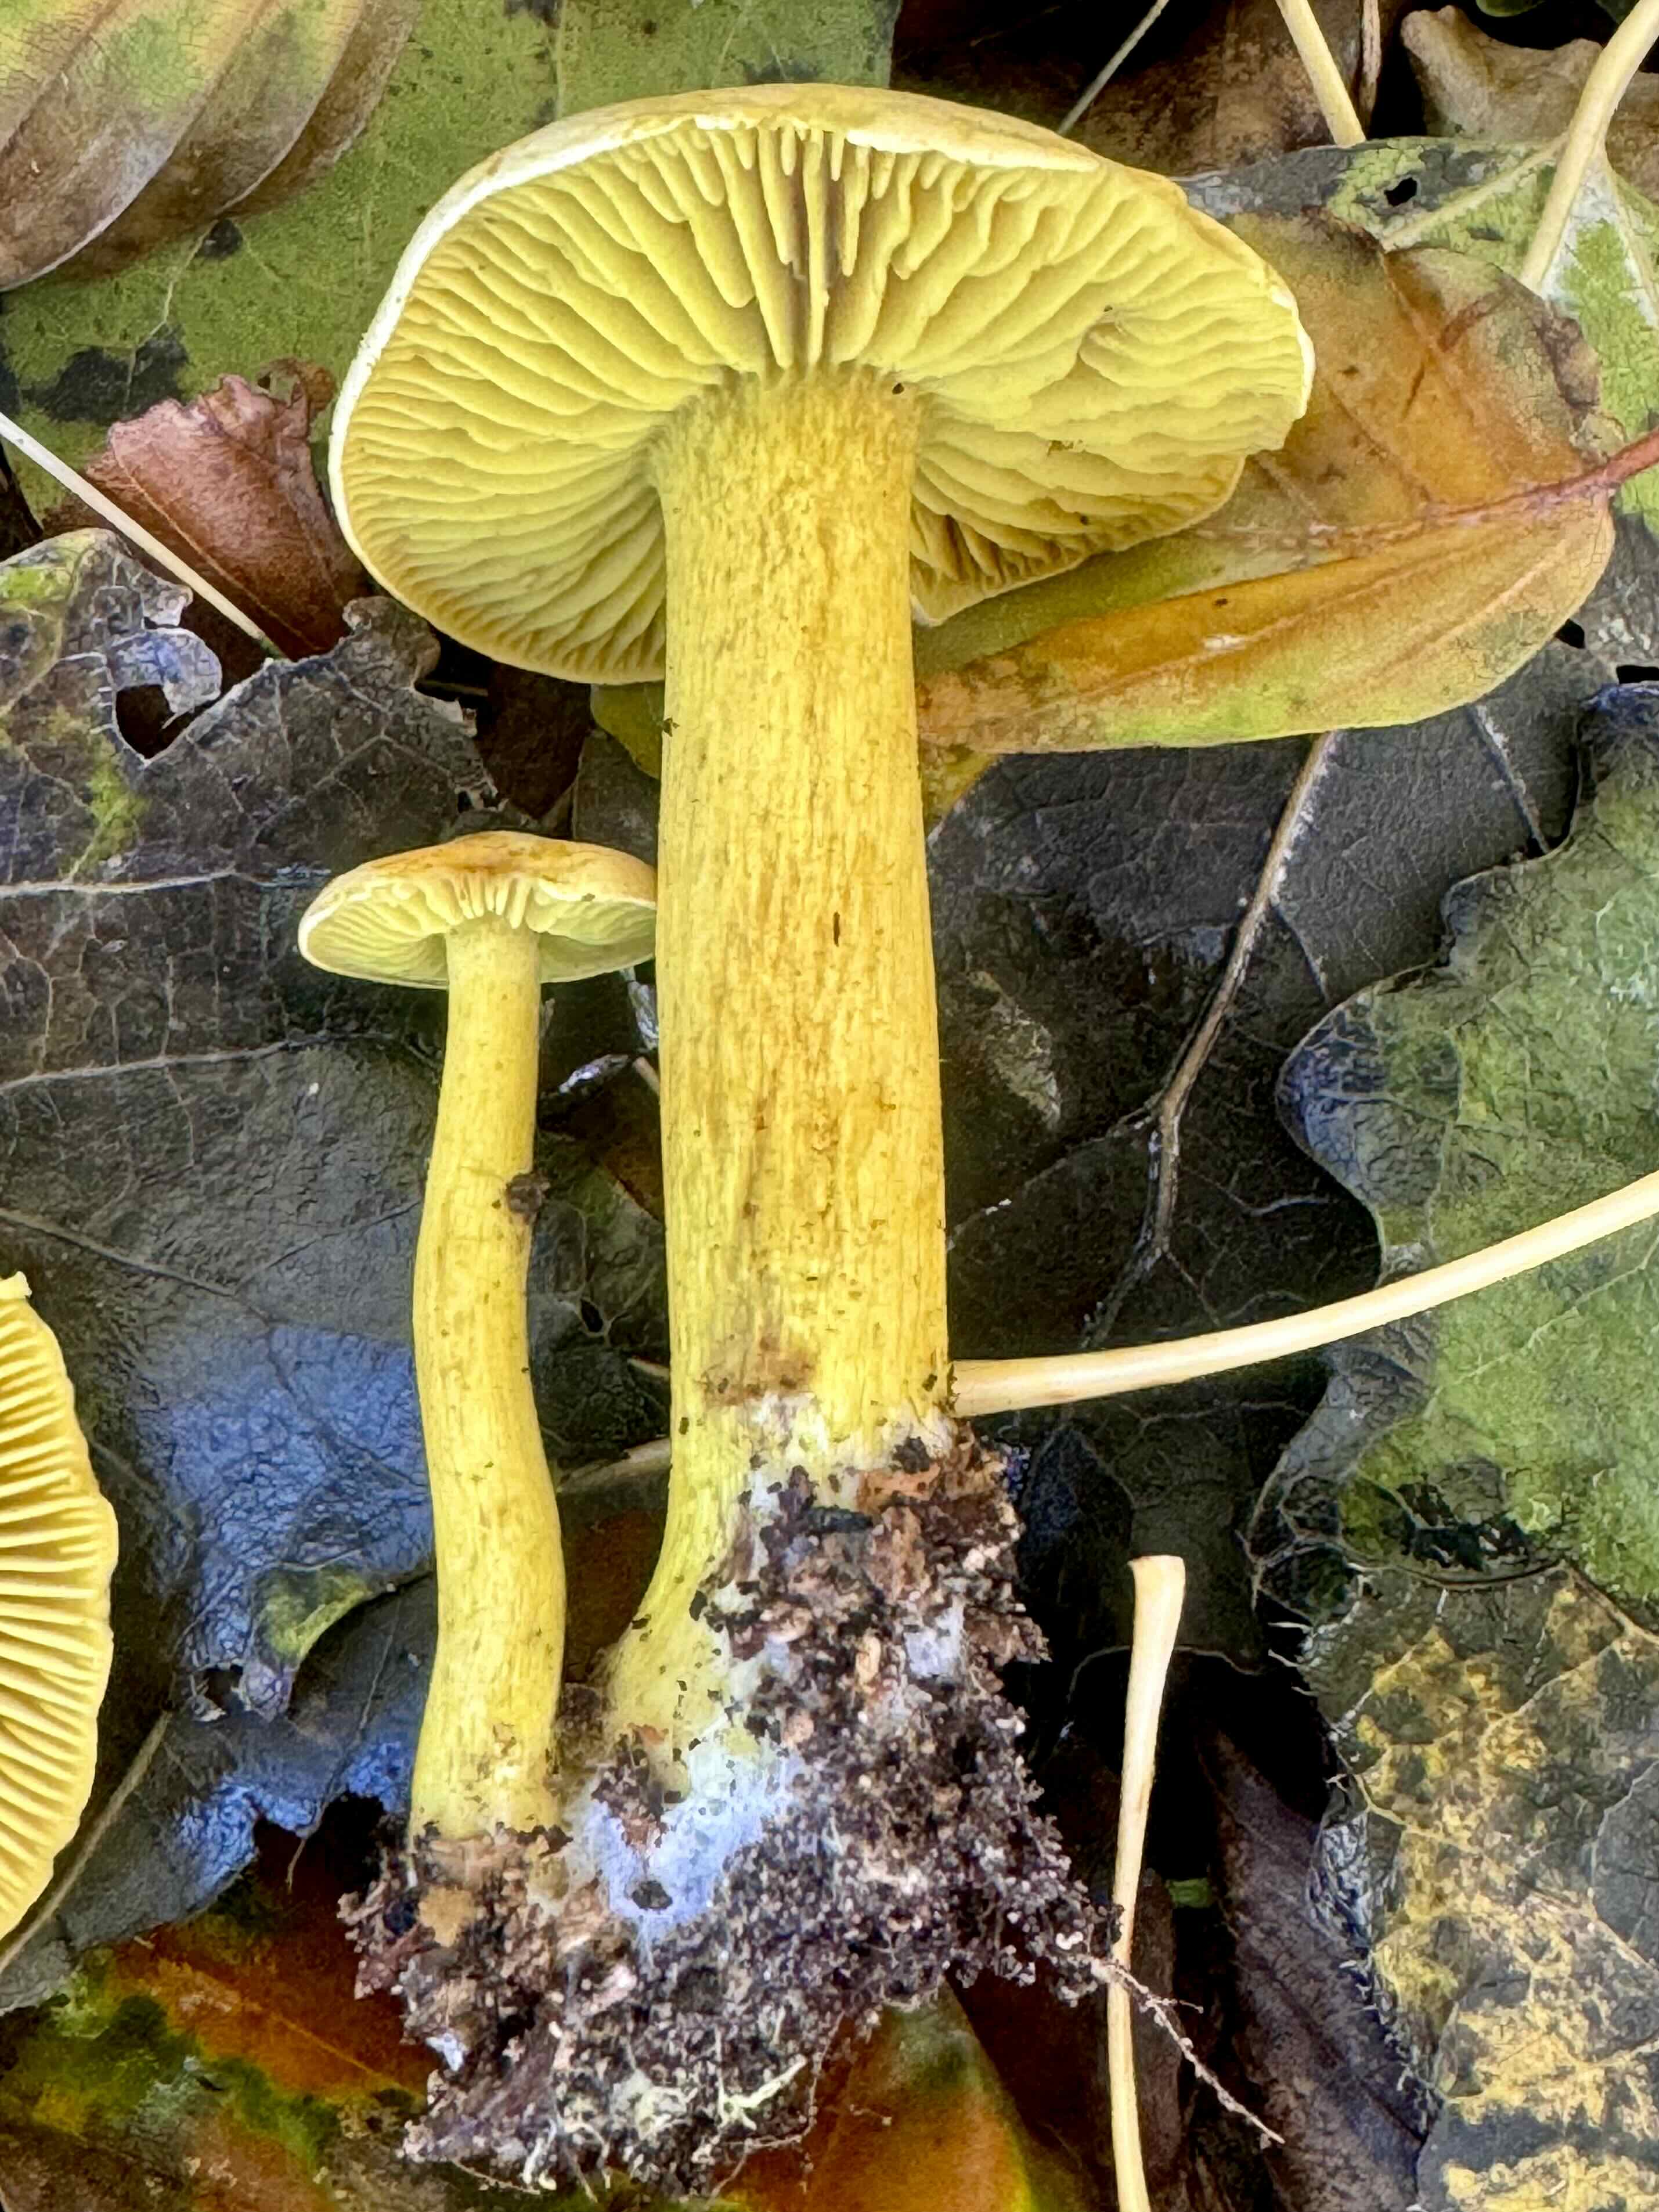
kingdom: Fungi
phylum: Basidiomycota
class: Agaricomycetes
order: Agaricales
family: Tricholomataceae
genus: Tricholoma
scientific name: Tricholoma sulphureum
